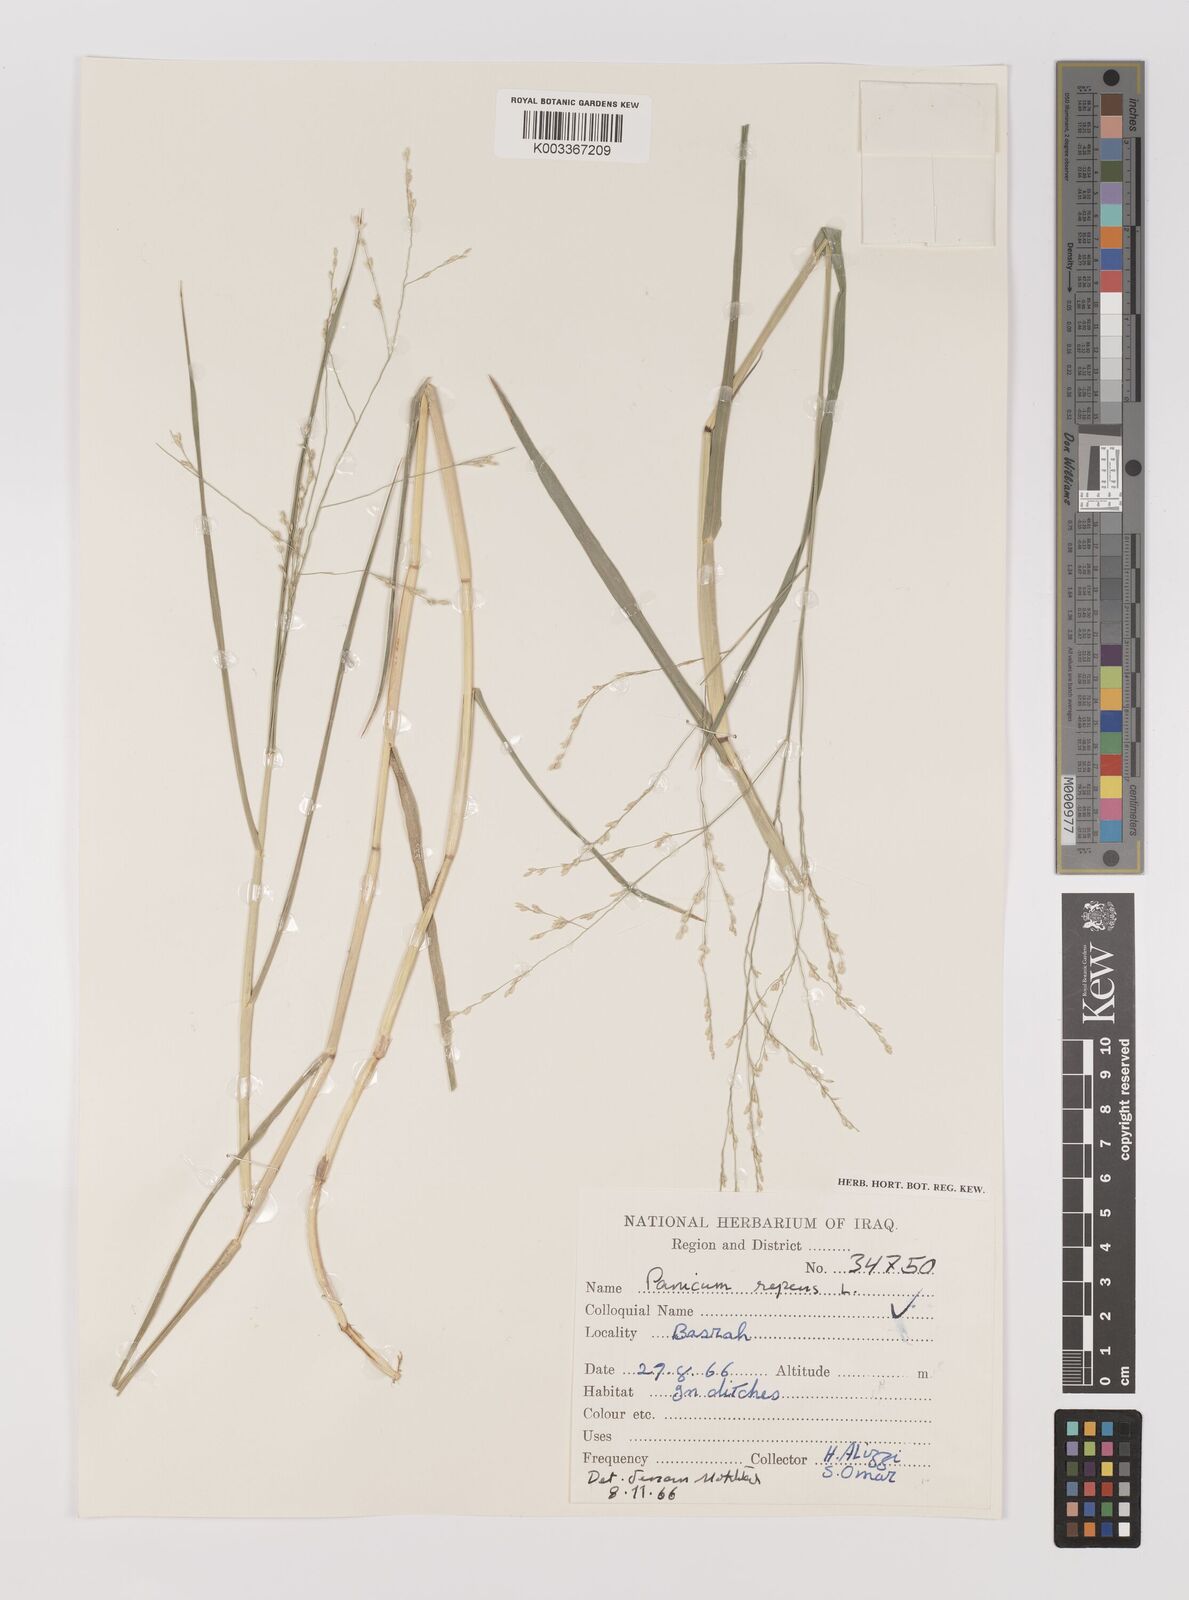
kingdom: Plantae
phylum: Tracheophyta
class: Liliopsida
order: Poales
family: Poaceae
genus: Panicum
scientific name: Panicum repens
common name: Torpedo grass
